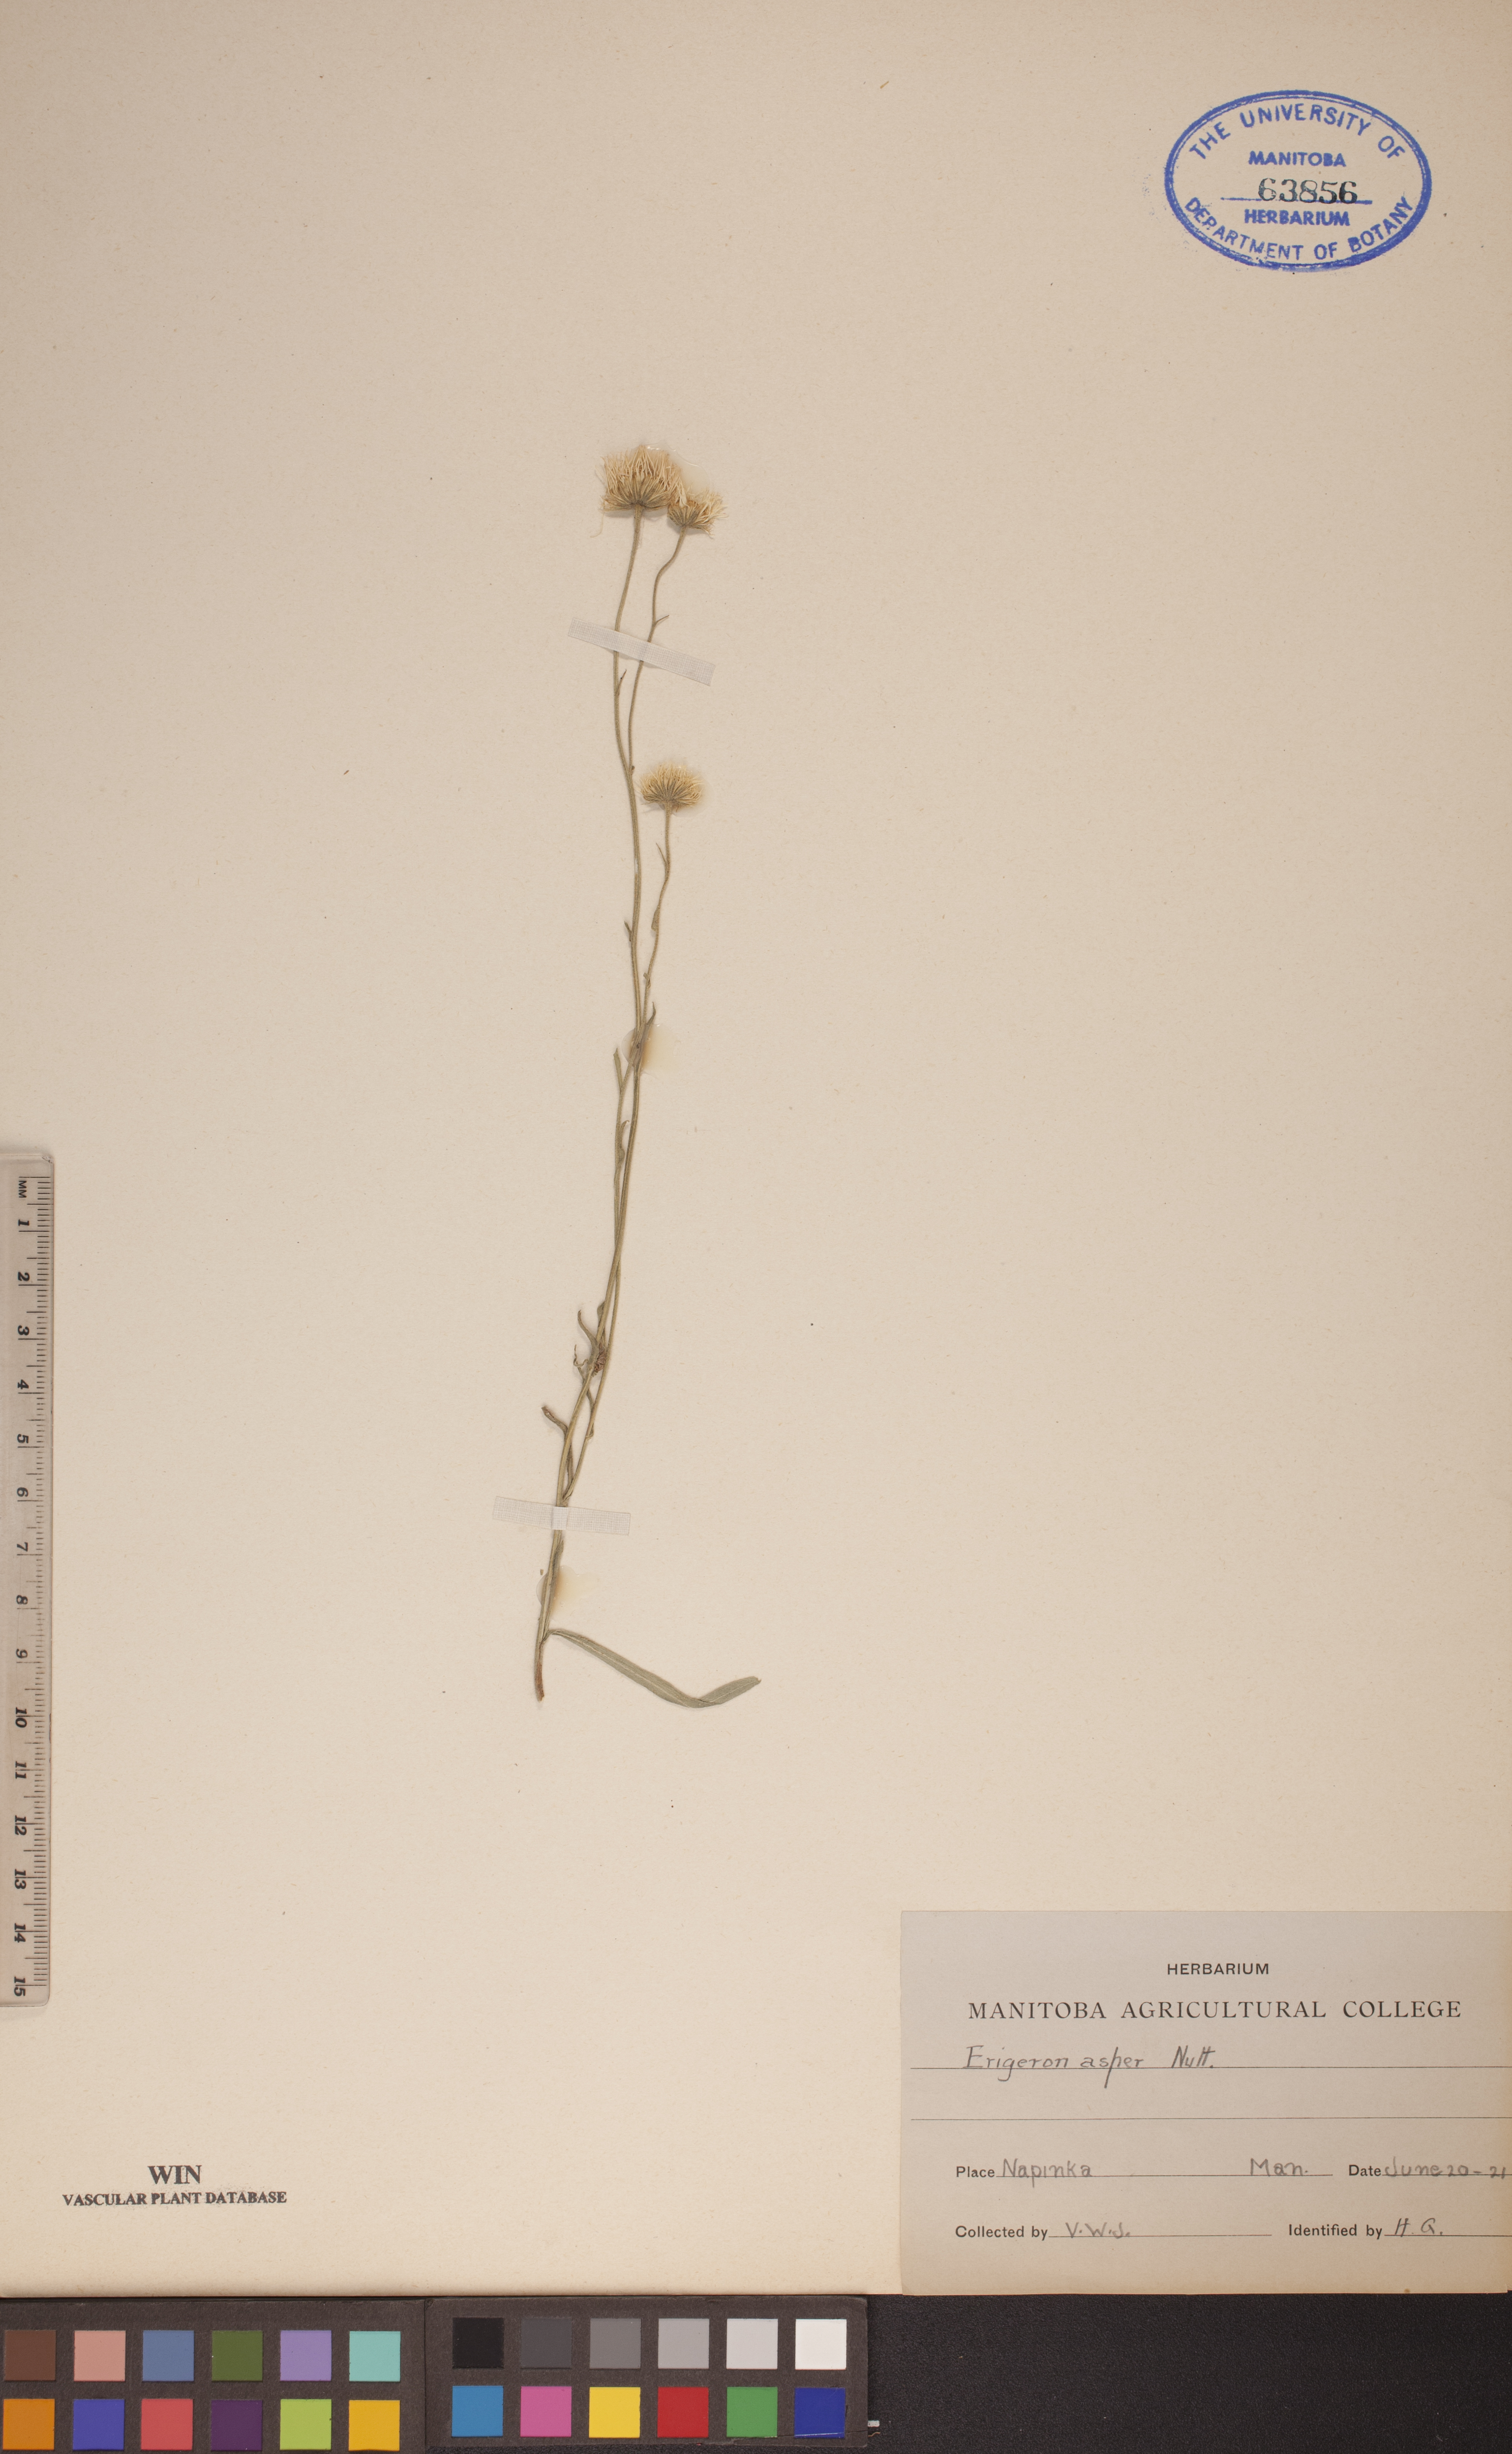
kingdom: Plantae
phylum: Tracheophyta
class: Magnoliopsida
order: Asterales
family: Asteraceae
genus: Erigeron
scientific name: Erigeron glabellus
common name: Smooth fleabane
